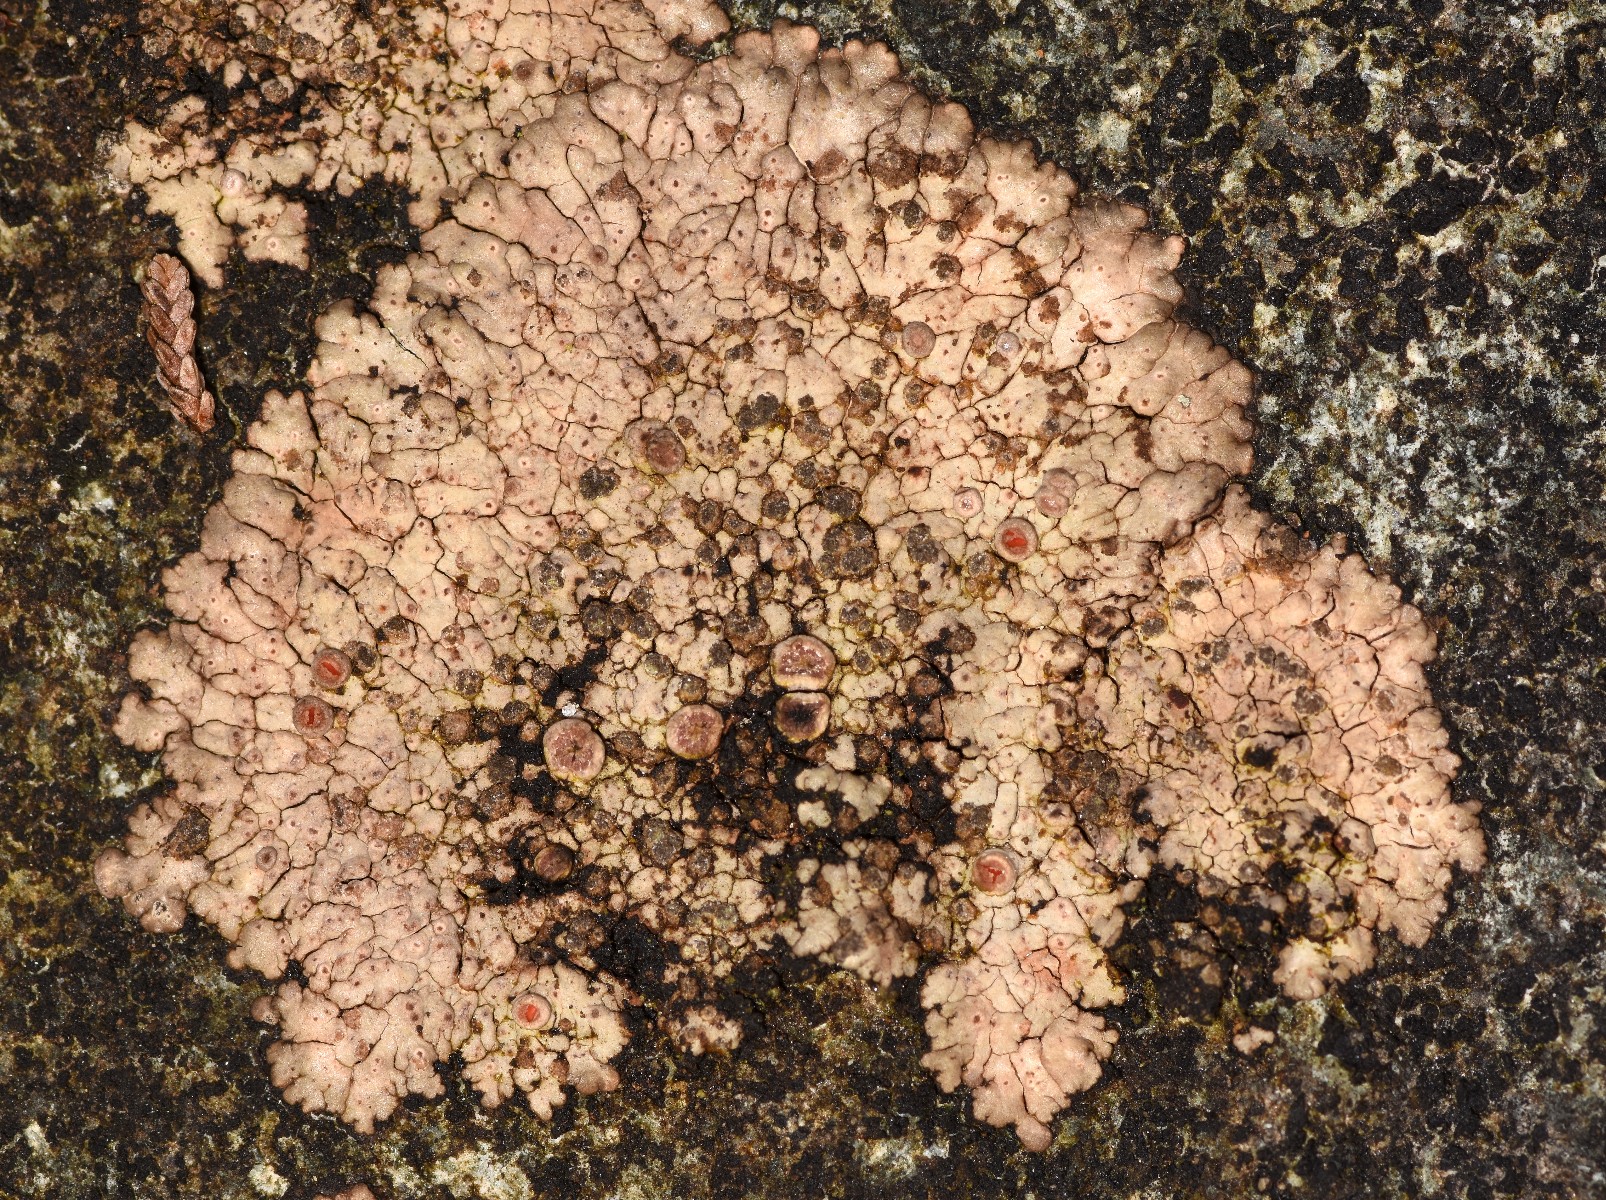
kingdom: Fungi
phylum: Ascomycota
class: Lecanoromycetes
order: Baeomycetales
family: Trapeliaceae
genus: Placopsis
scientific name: Placopsis lambii
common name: blank okseøjelav
